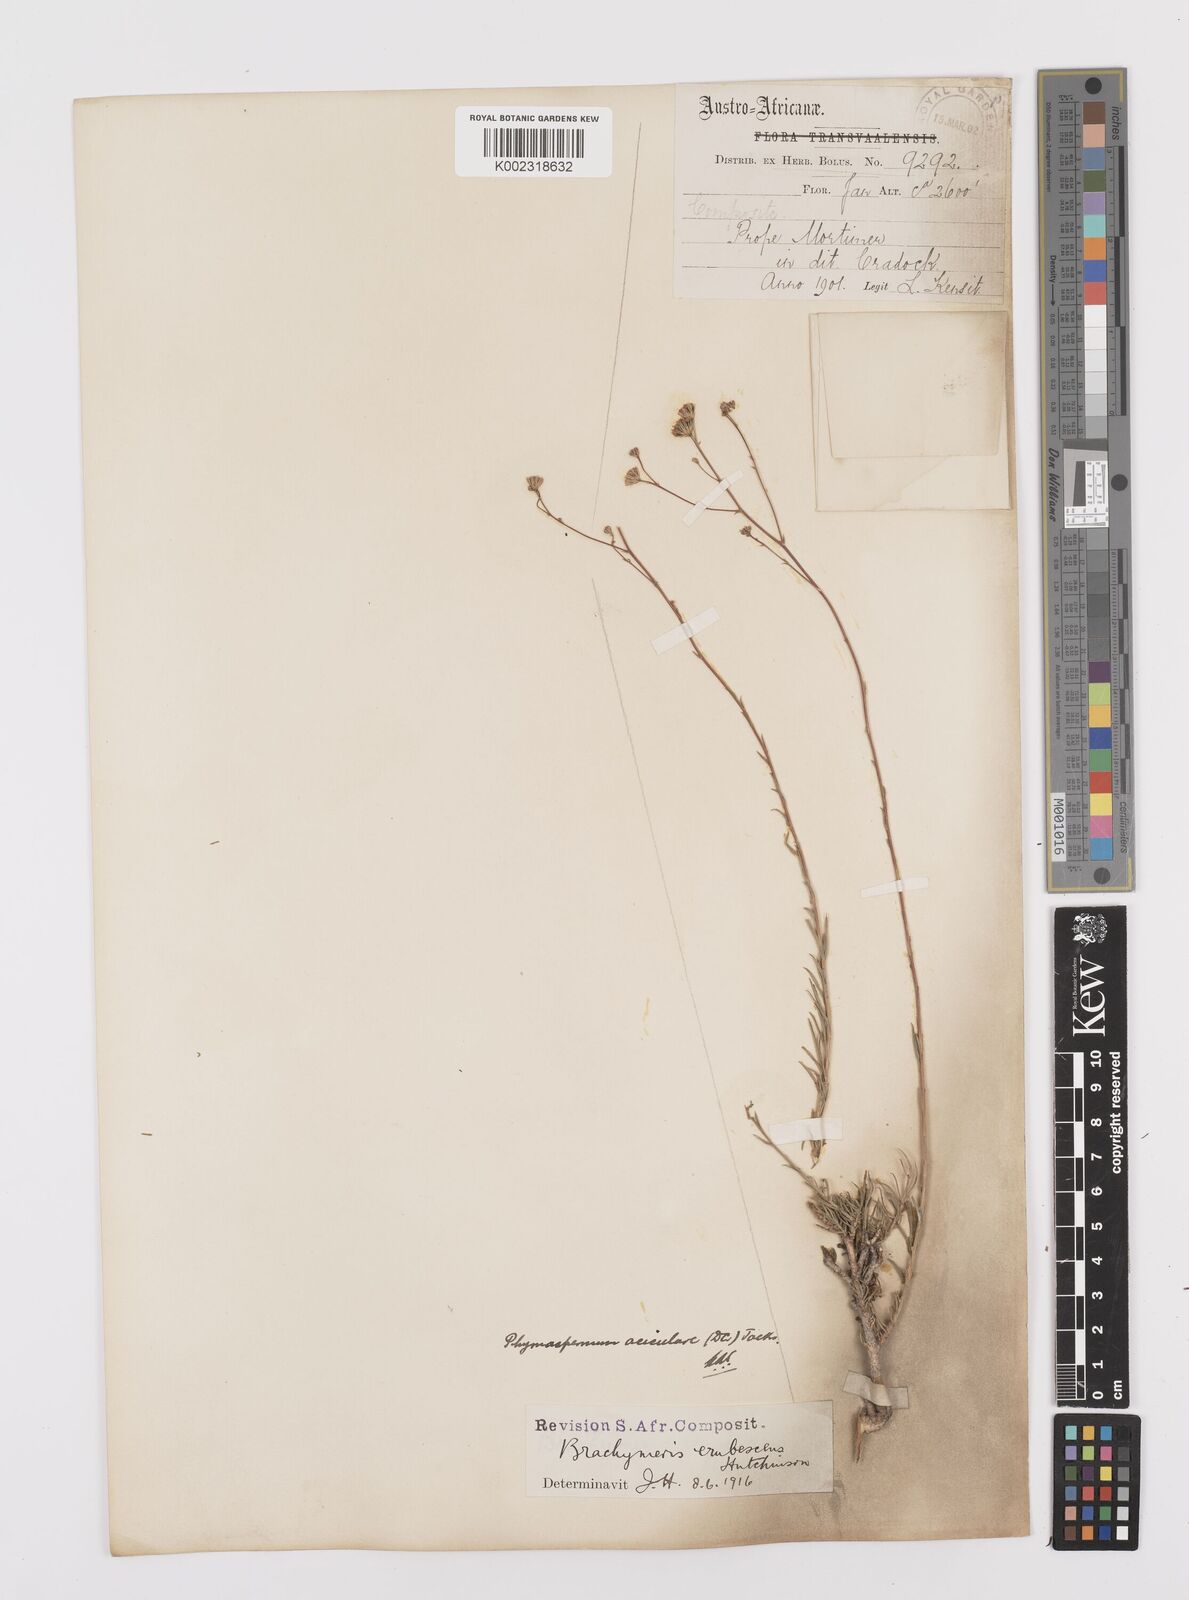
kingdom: Plantae
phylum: Tracheophyta
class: Magnoliopsida
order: Asterales
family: Asteraceae
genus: Phymaspermum
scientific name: Phymaspermum aciculare
